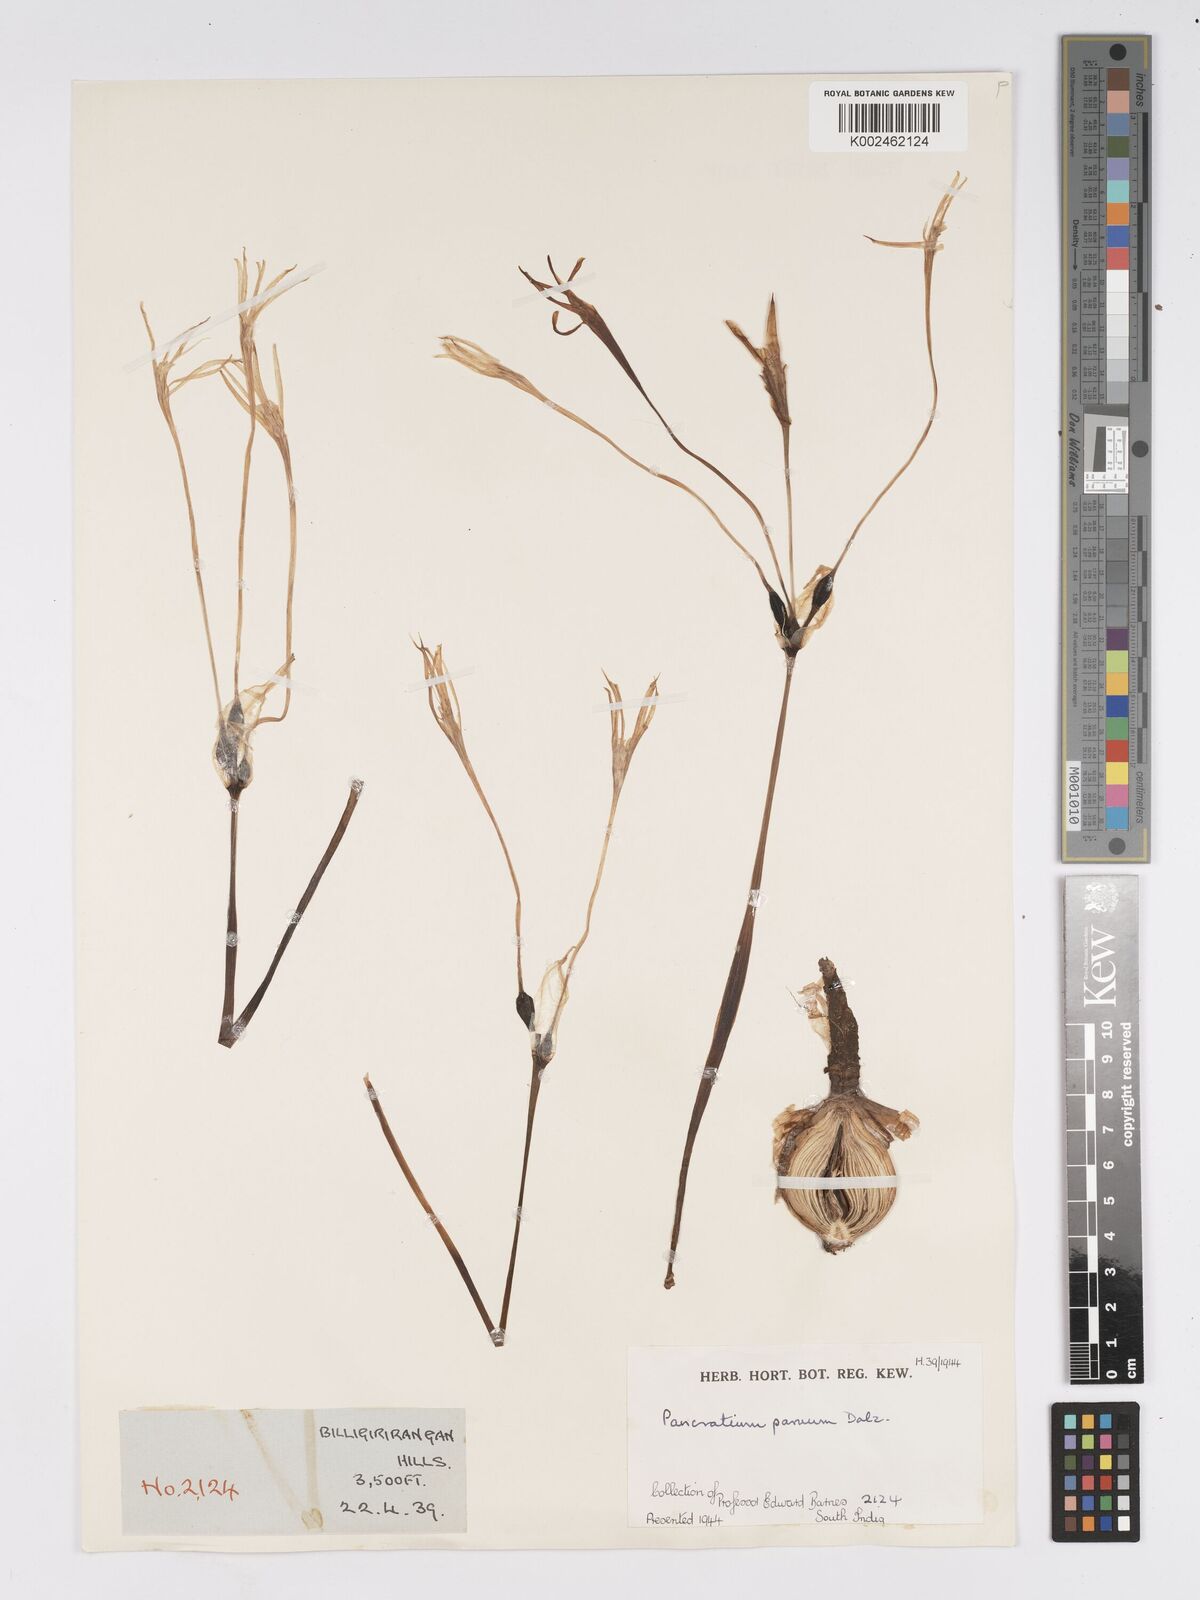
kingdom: Plantae
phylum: Tracheophyta
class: Liliopsida
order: Asparagales
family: Amaryllidaceae
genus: Pancratium
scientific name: Pancratium parvum
